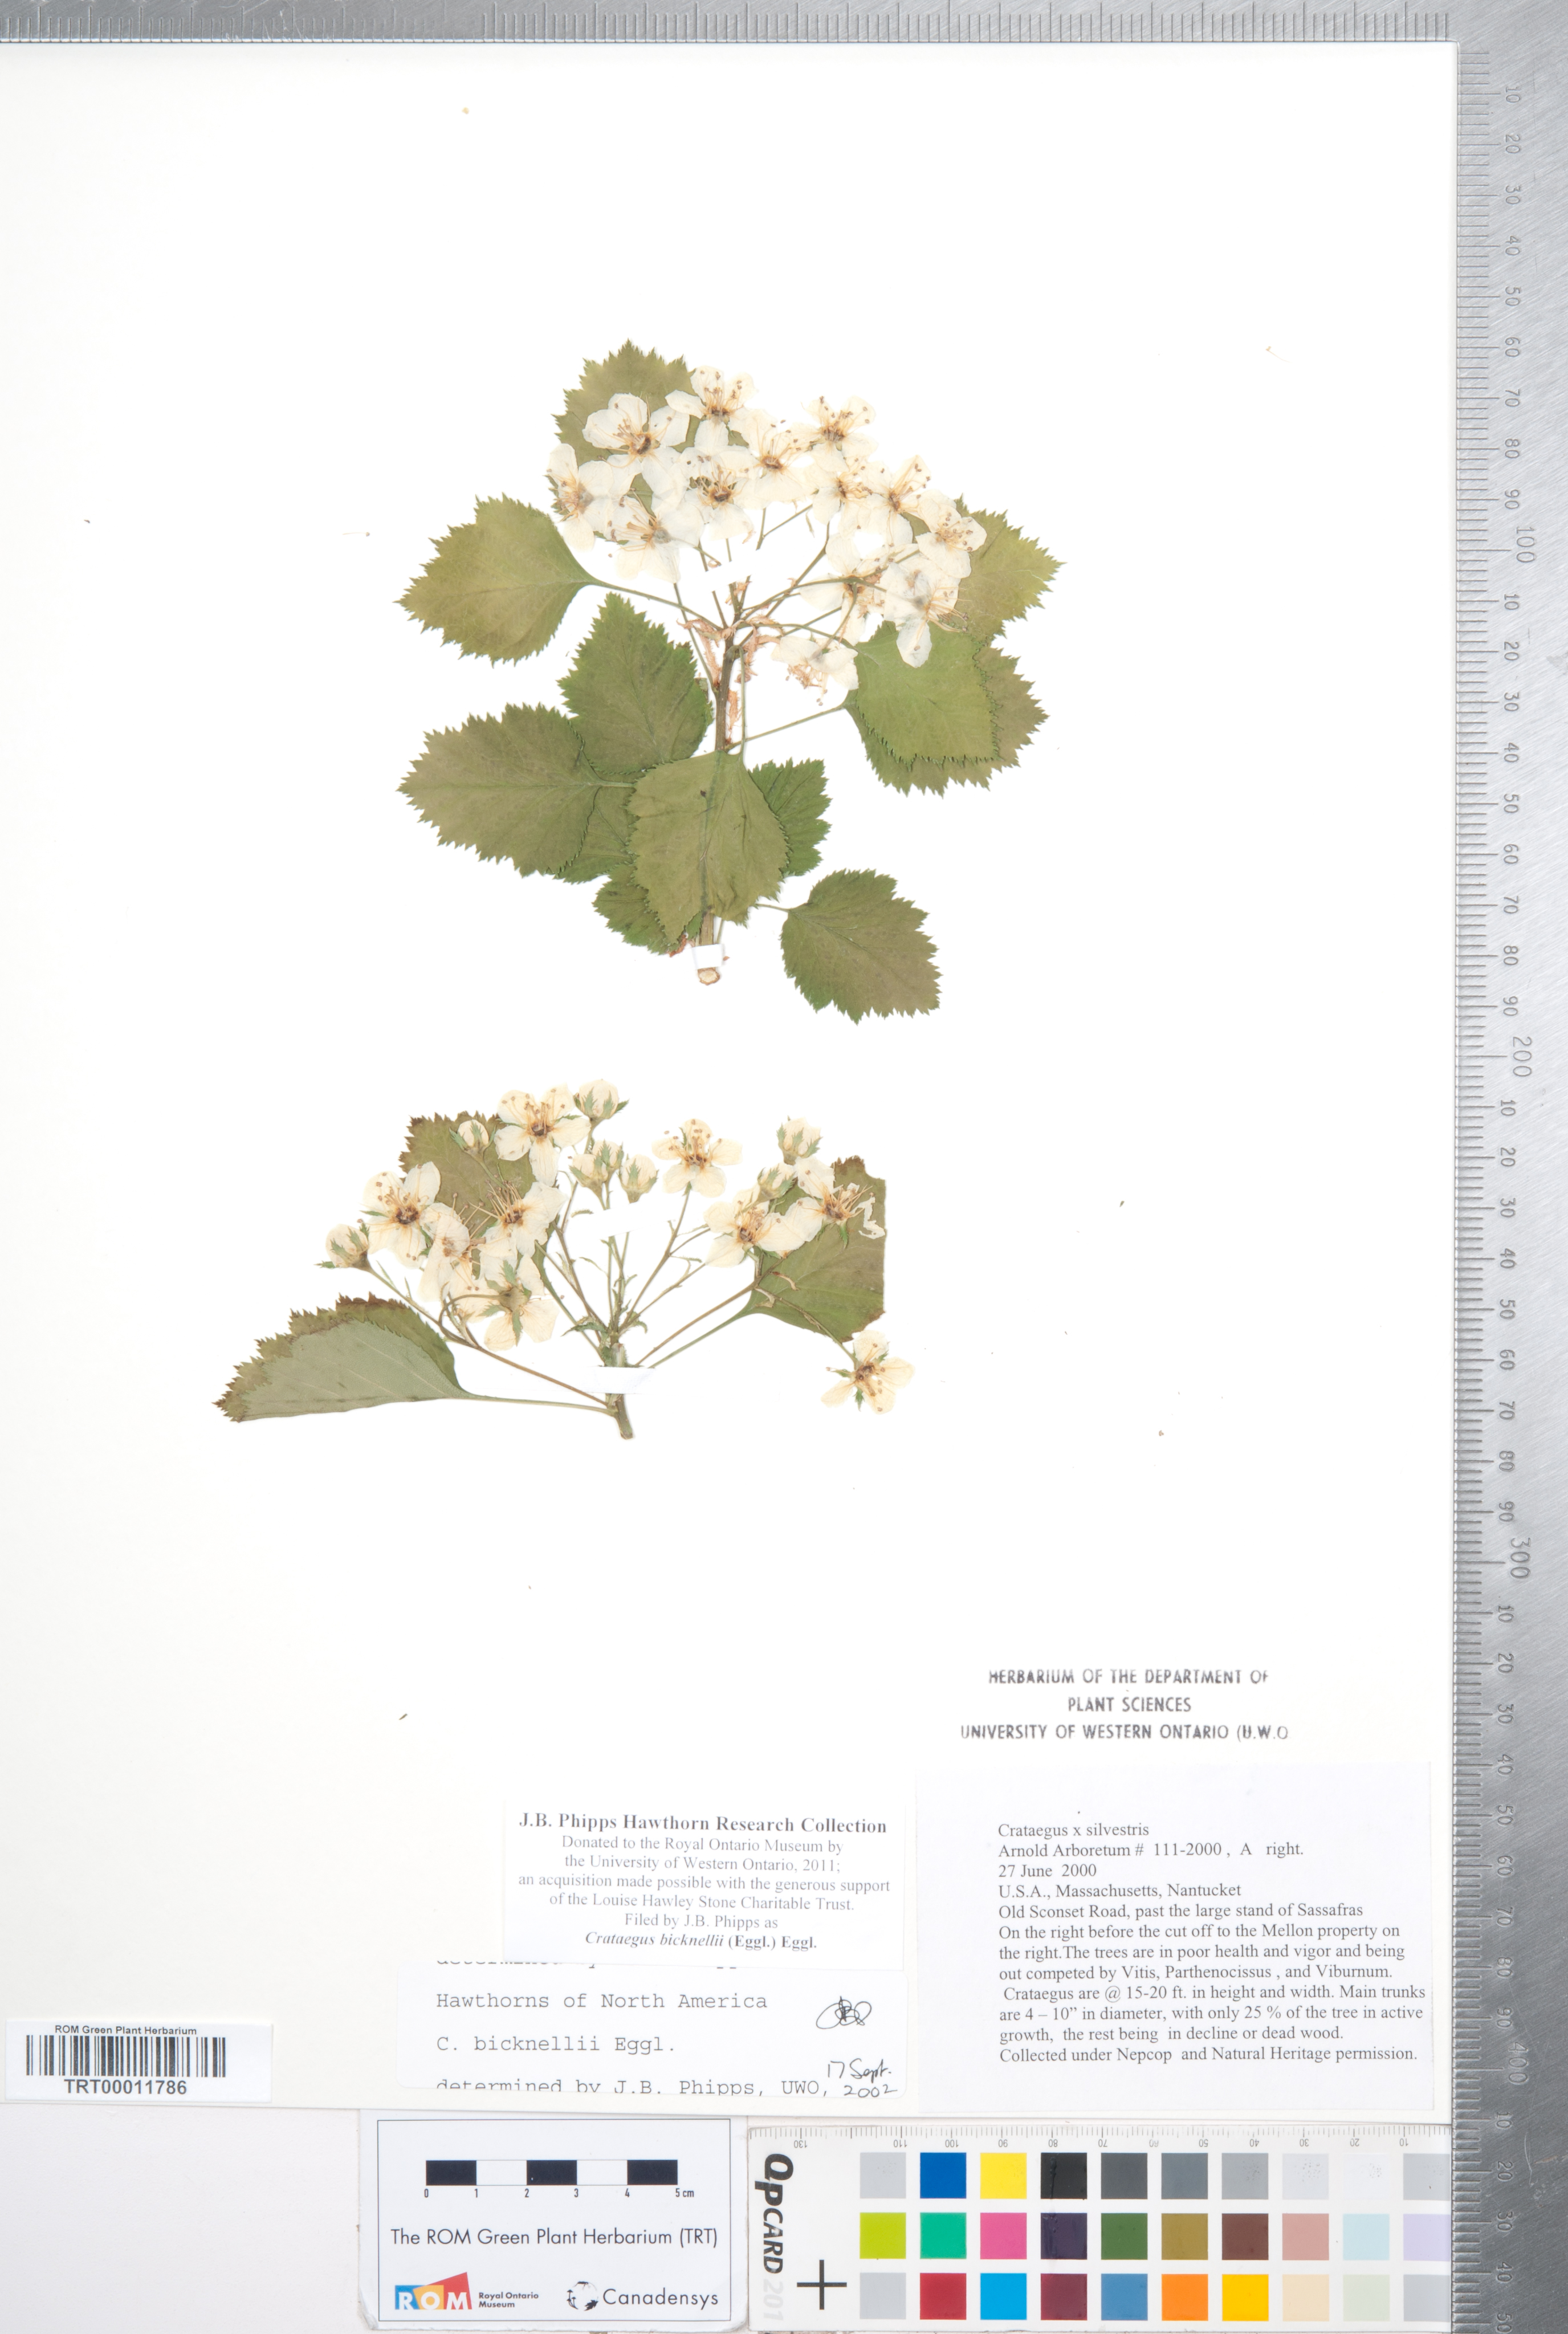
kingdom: Plantae
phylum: Tracheophyta
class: Magnoliopsida
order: Rosales
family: Rosaceae
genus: Crataegus
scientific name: Crataegus bicknellii
